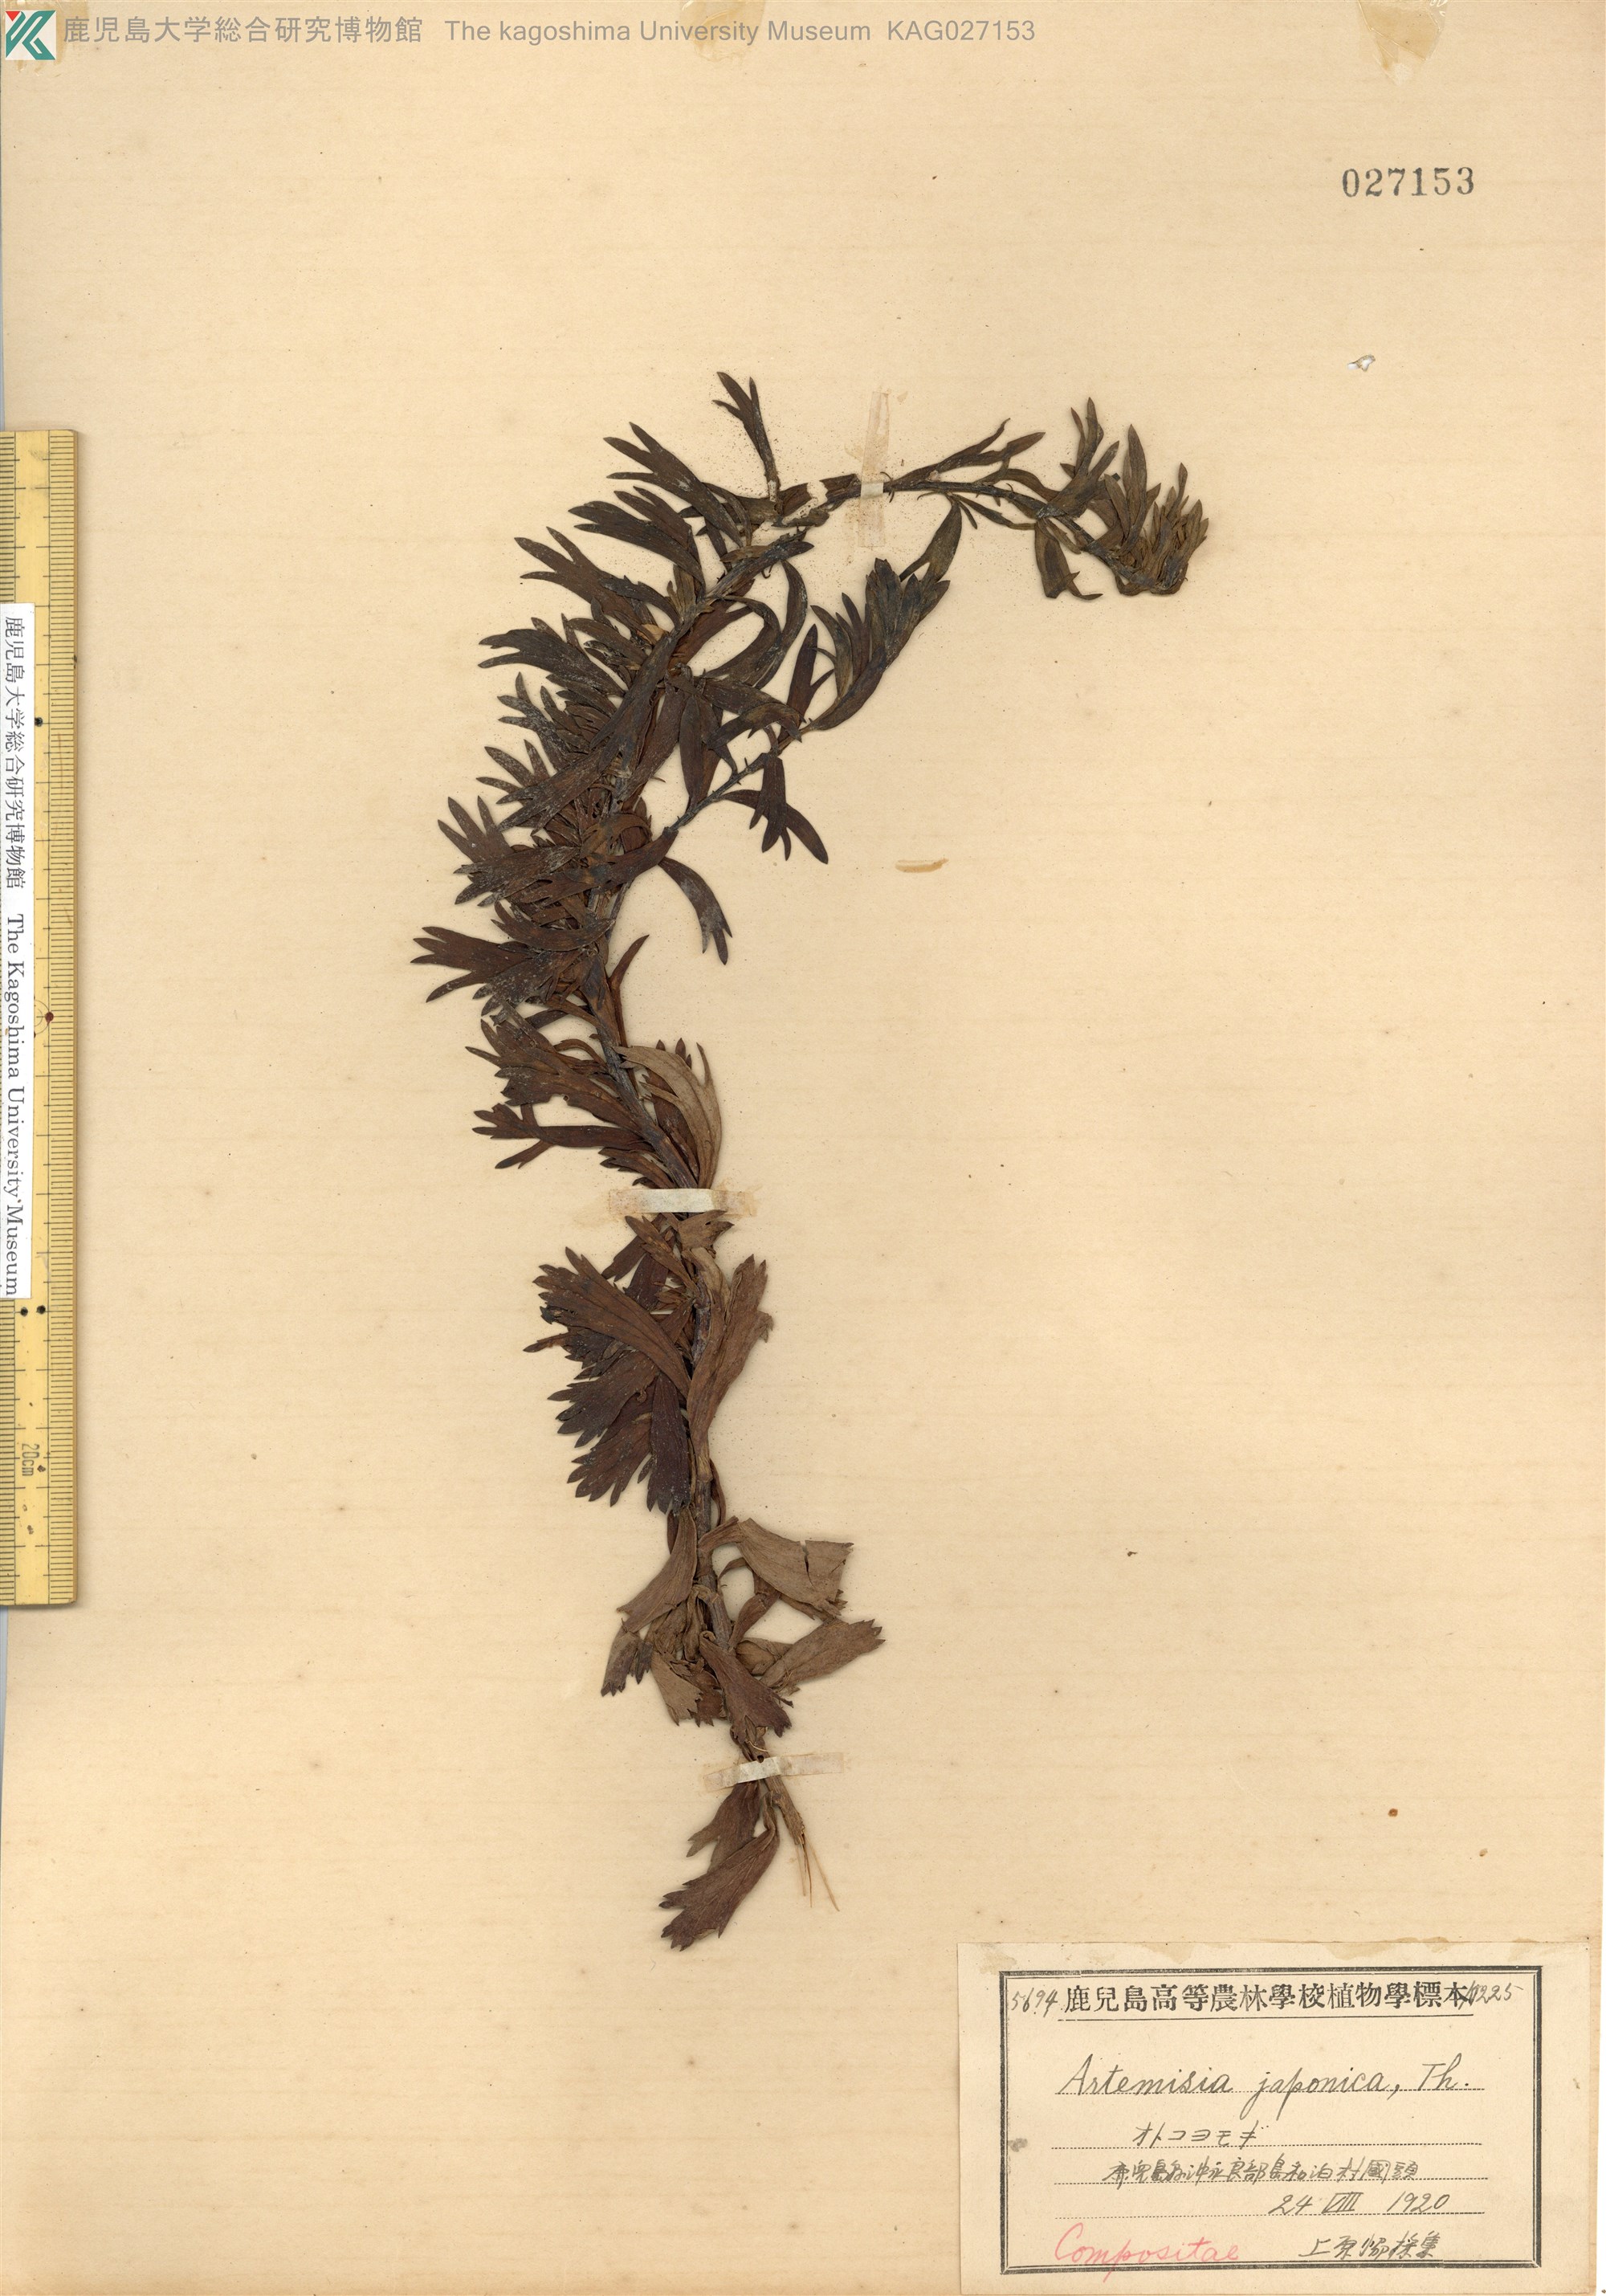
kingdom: Plantae
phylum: Tracheophyta
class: Magnoliopsida
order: Asterales
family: Asteraceae
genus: Artemisia
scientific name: Artemisia japonica
